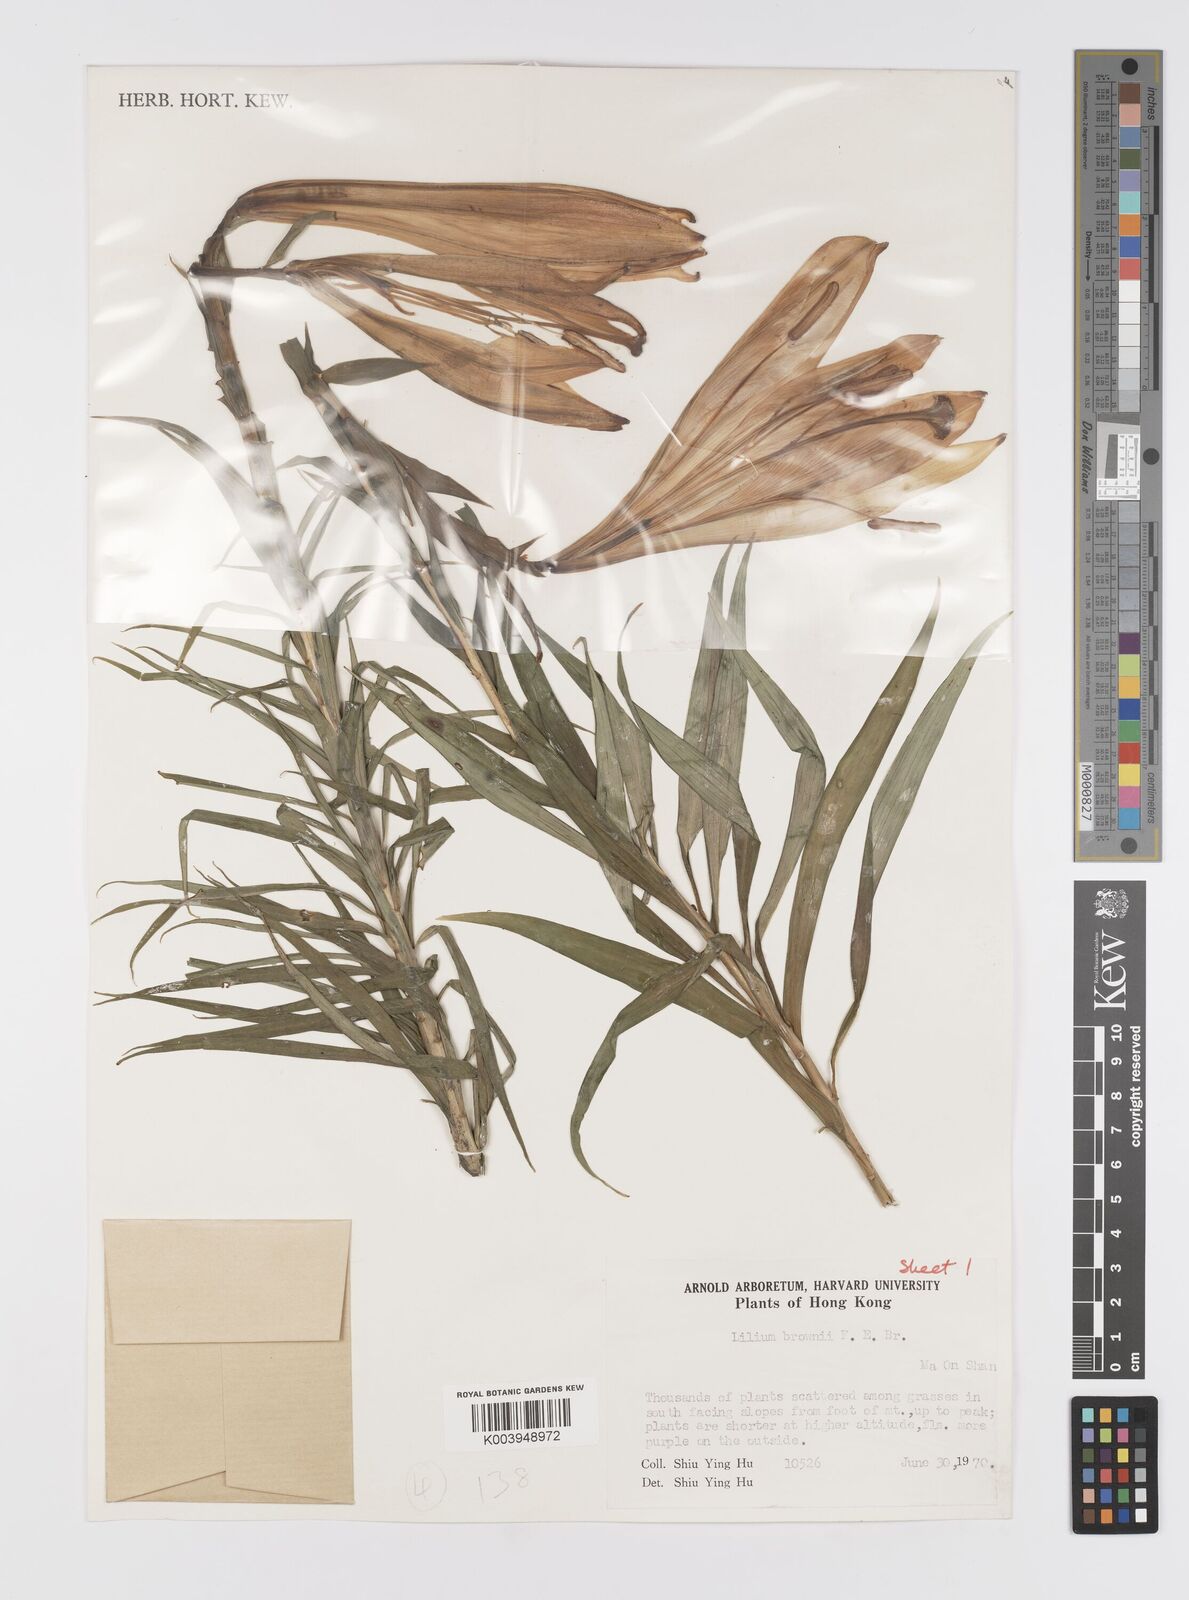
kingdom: Plantae
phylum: Tracheophyta
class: Liliopsida
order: Liliales
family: Liliaceae
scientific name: Liliaceae
